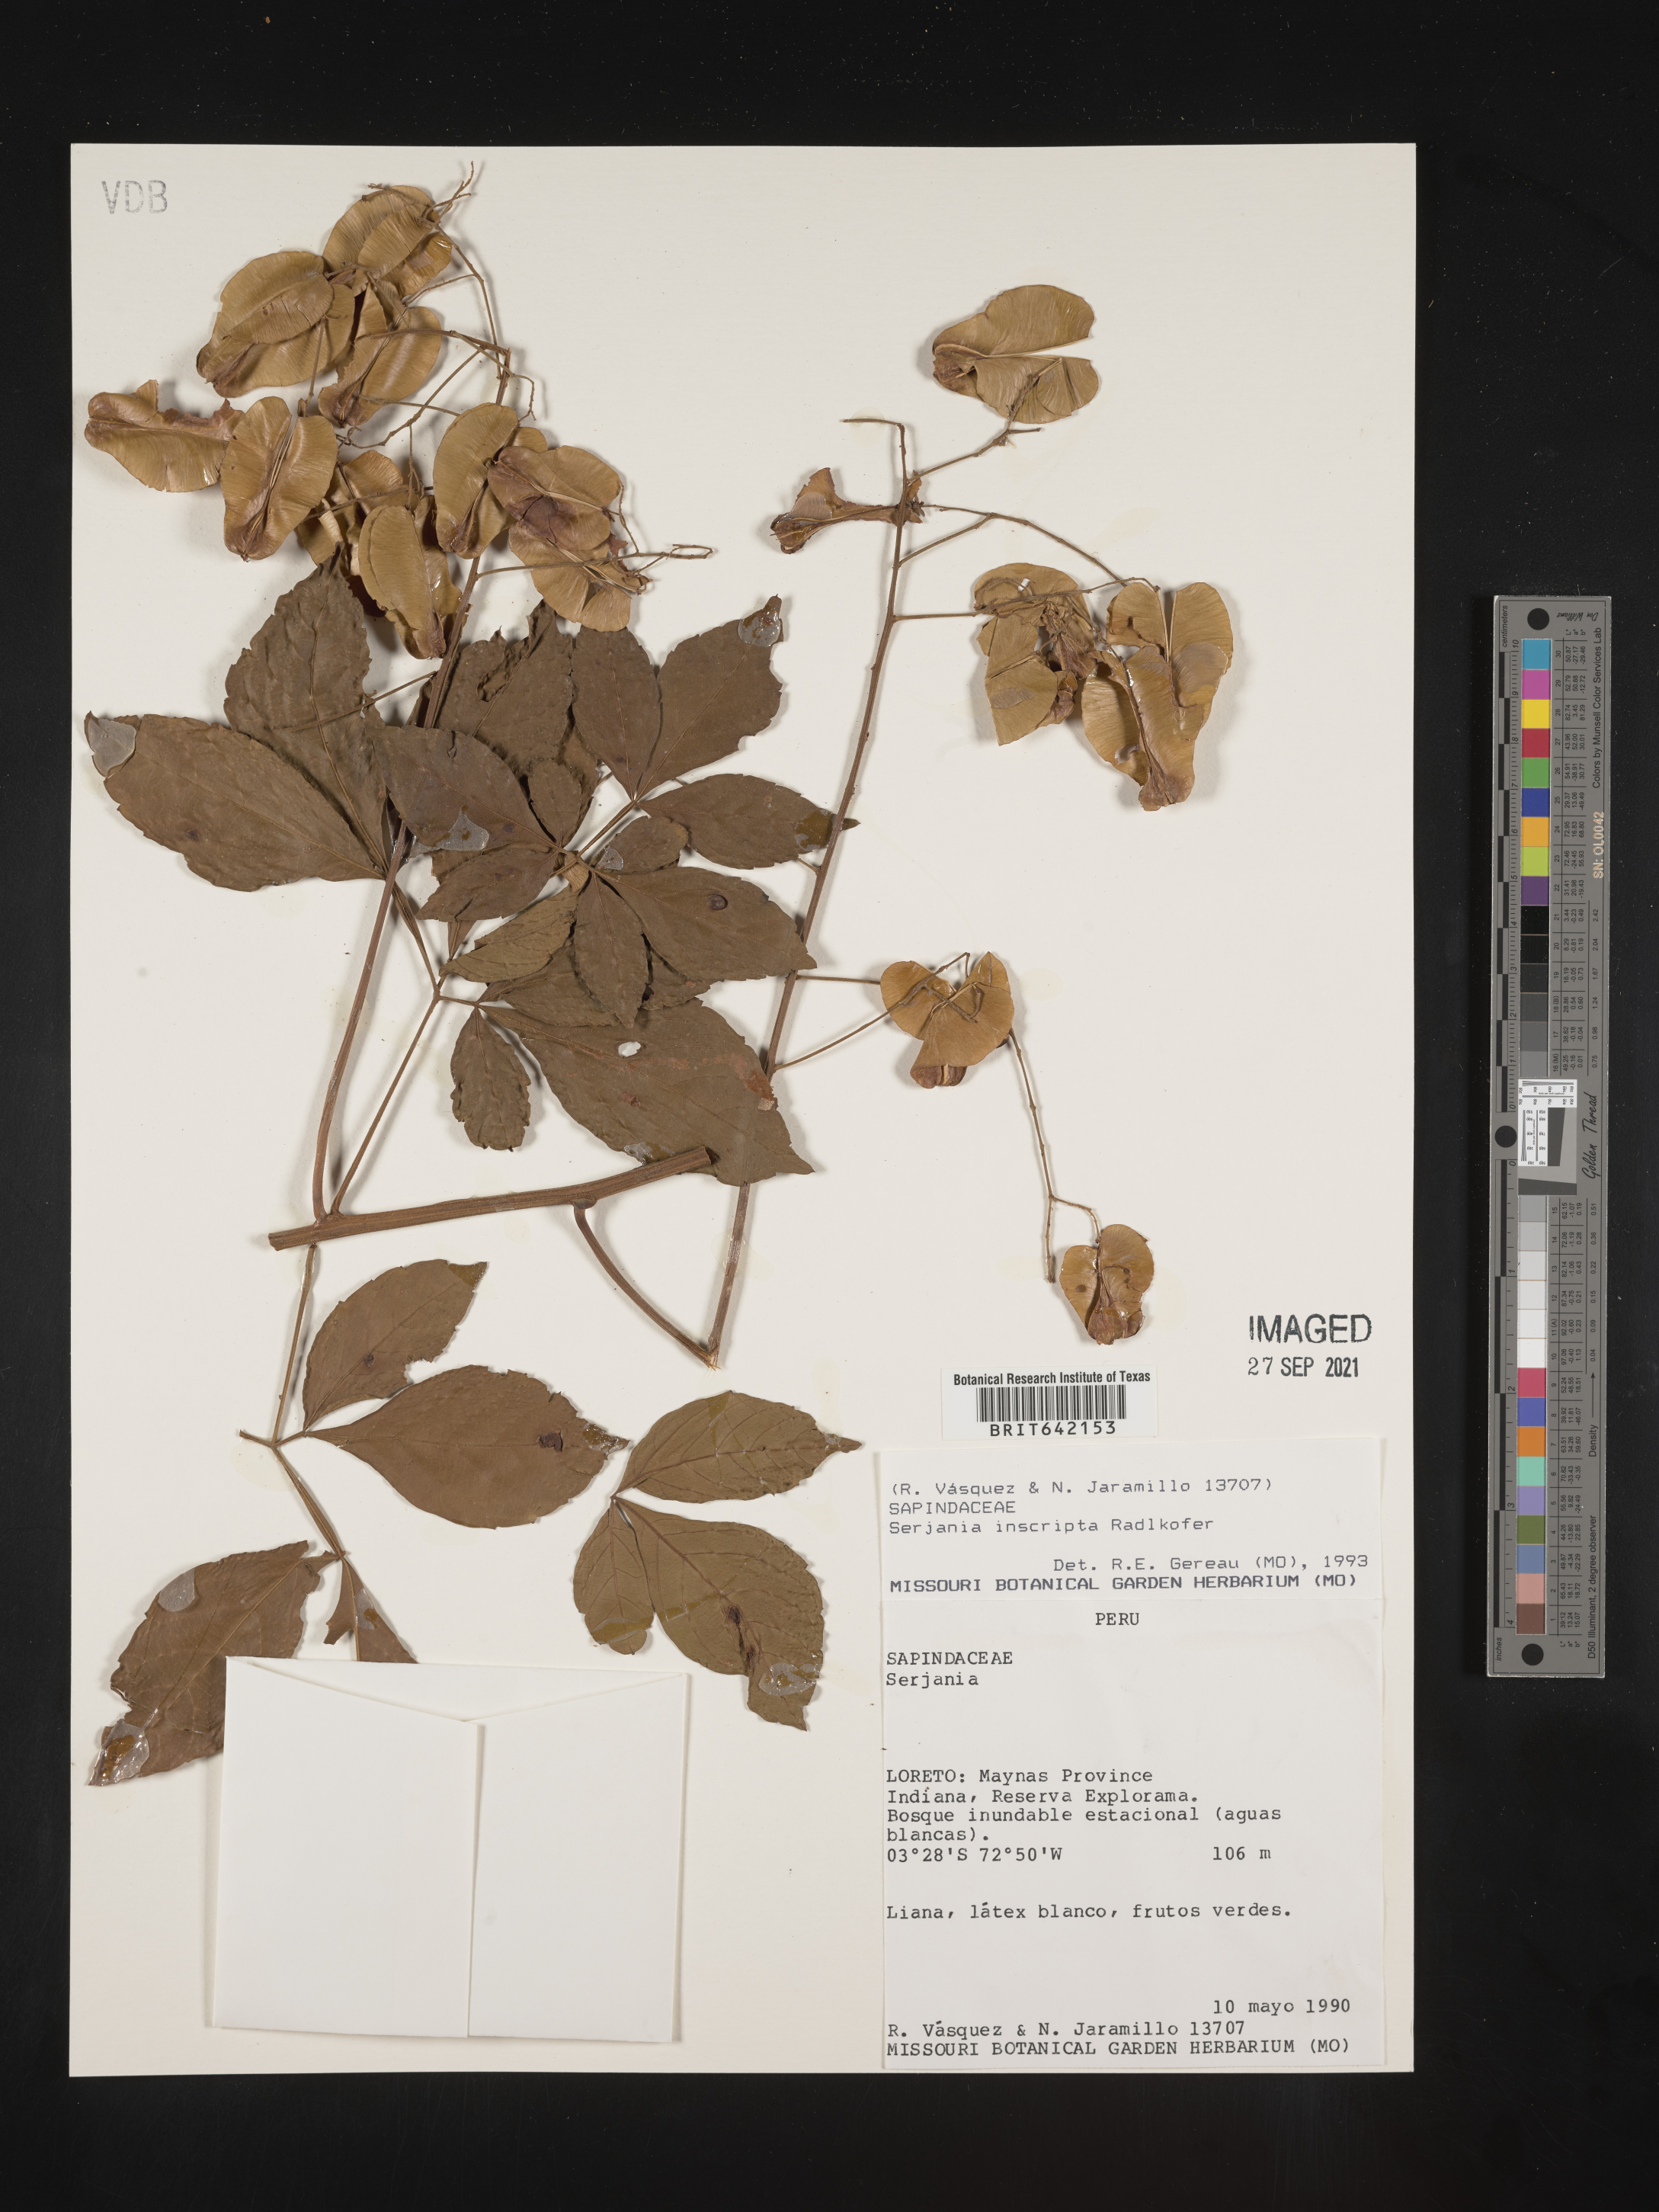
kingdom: Plantae
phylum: Tracheophyta
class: Magnoliopsida
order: Sapindales
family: Sapindaceae
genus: Serjania
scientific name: Serjania
